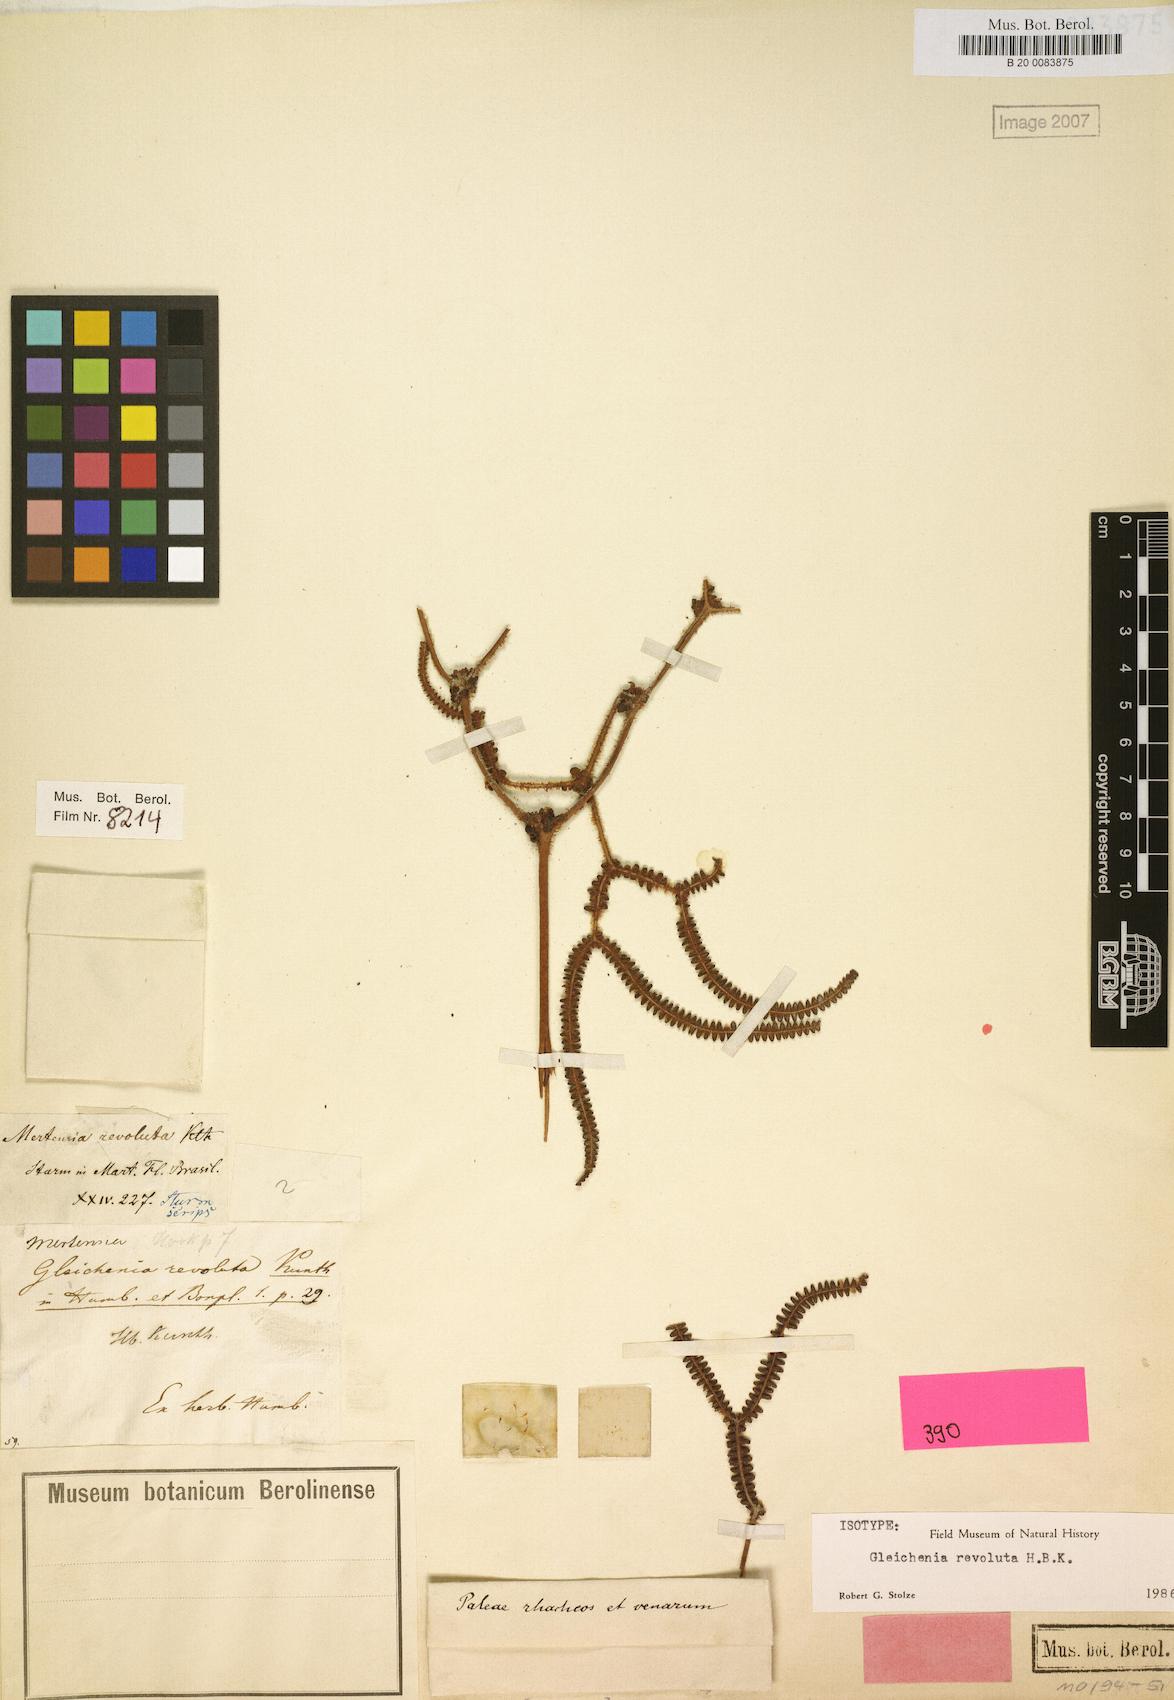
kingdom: Plantae
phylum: Tracheophyta
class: Polypodiopsida
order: Gleicheniales
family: Gleicheniaceae
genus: Sticherus
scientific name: Sticherus revolutus
